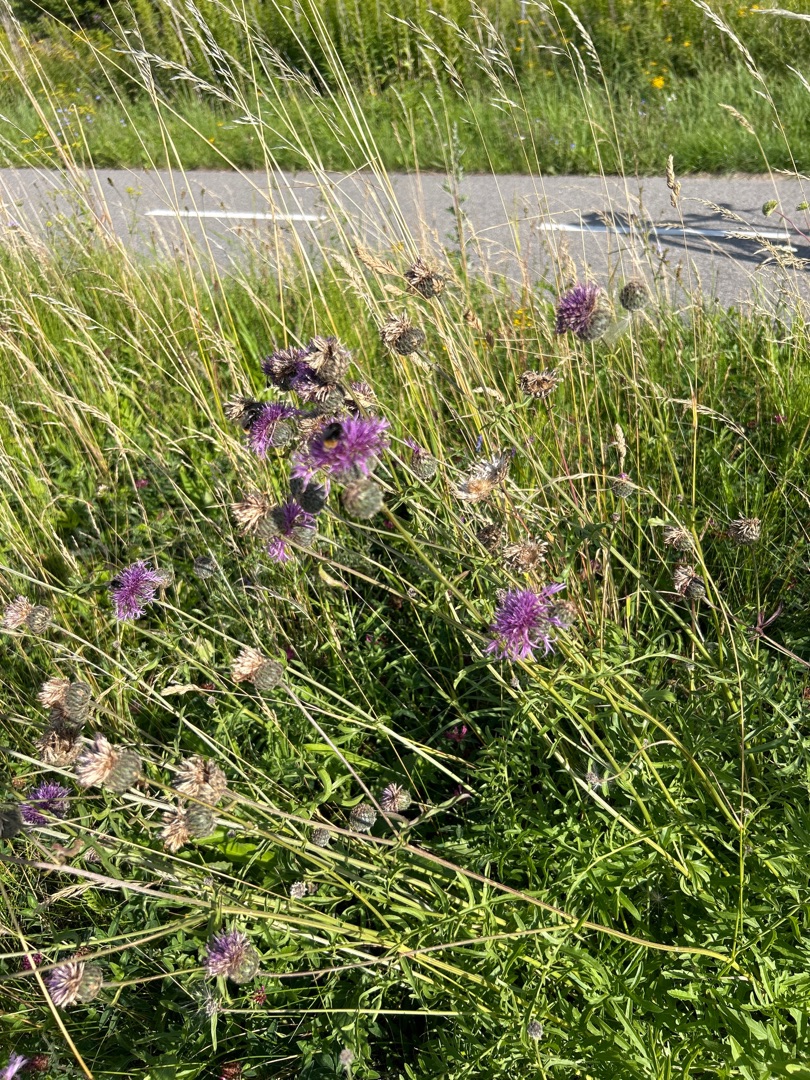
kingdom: Plantae
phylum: Tracheophyta
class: Magnoliopsida
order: Asterales
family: Asteraceae
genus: Centaurea
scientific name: Centaurea scabiosa
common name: Stor knopurt
